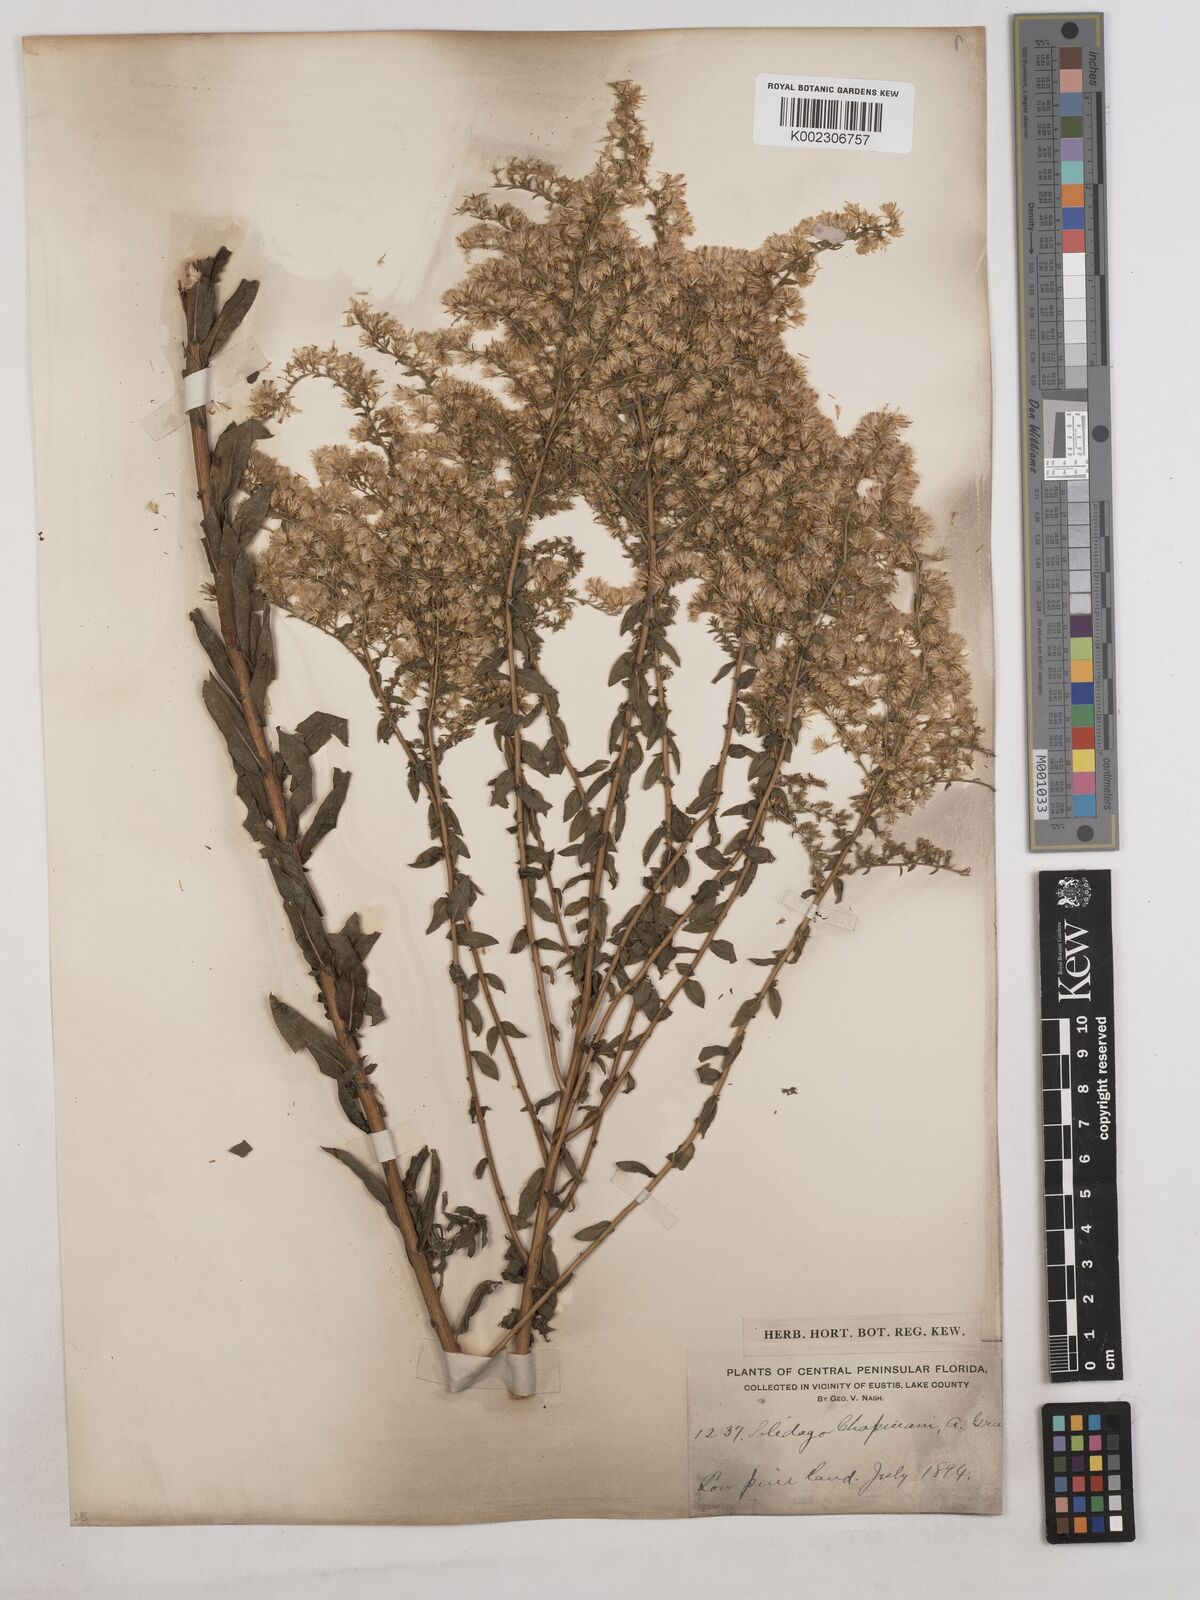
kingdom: Plantae
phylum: Tracheophyta
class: Magnoliopsida
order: Asterales
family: Asteraceae
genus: Solidago
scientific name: Solidago chapmanii
